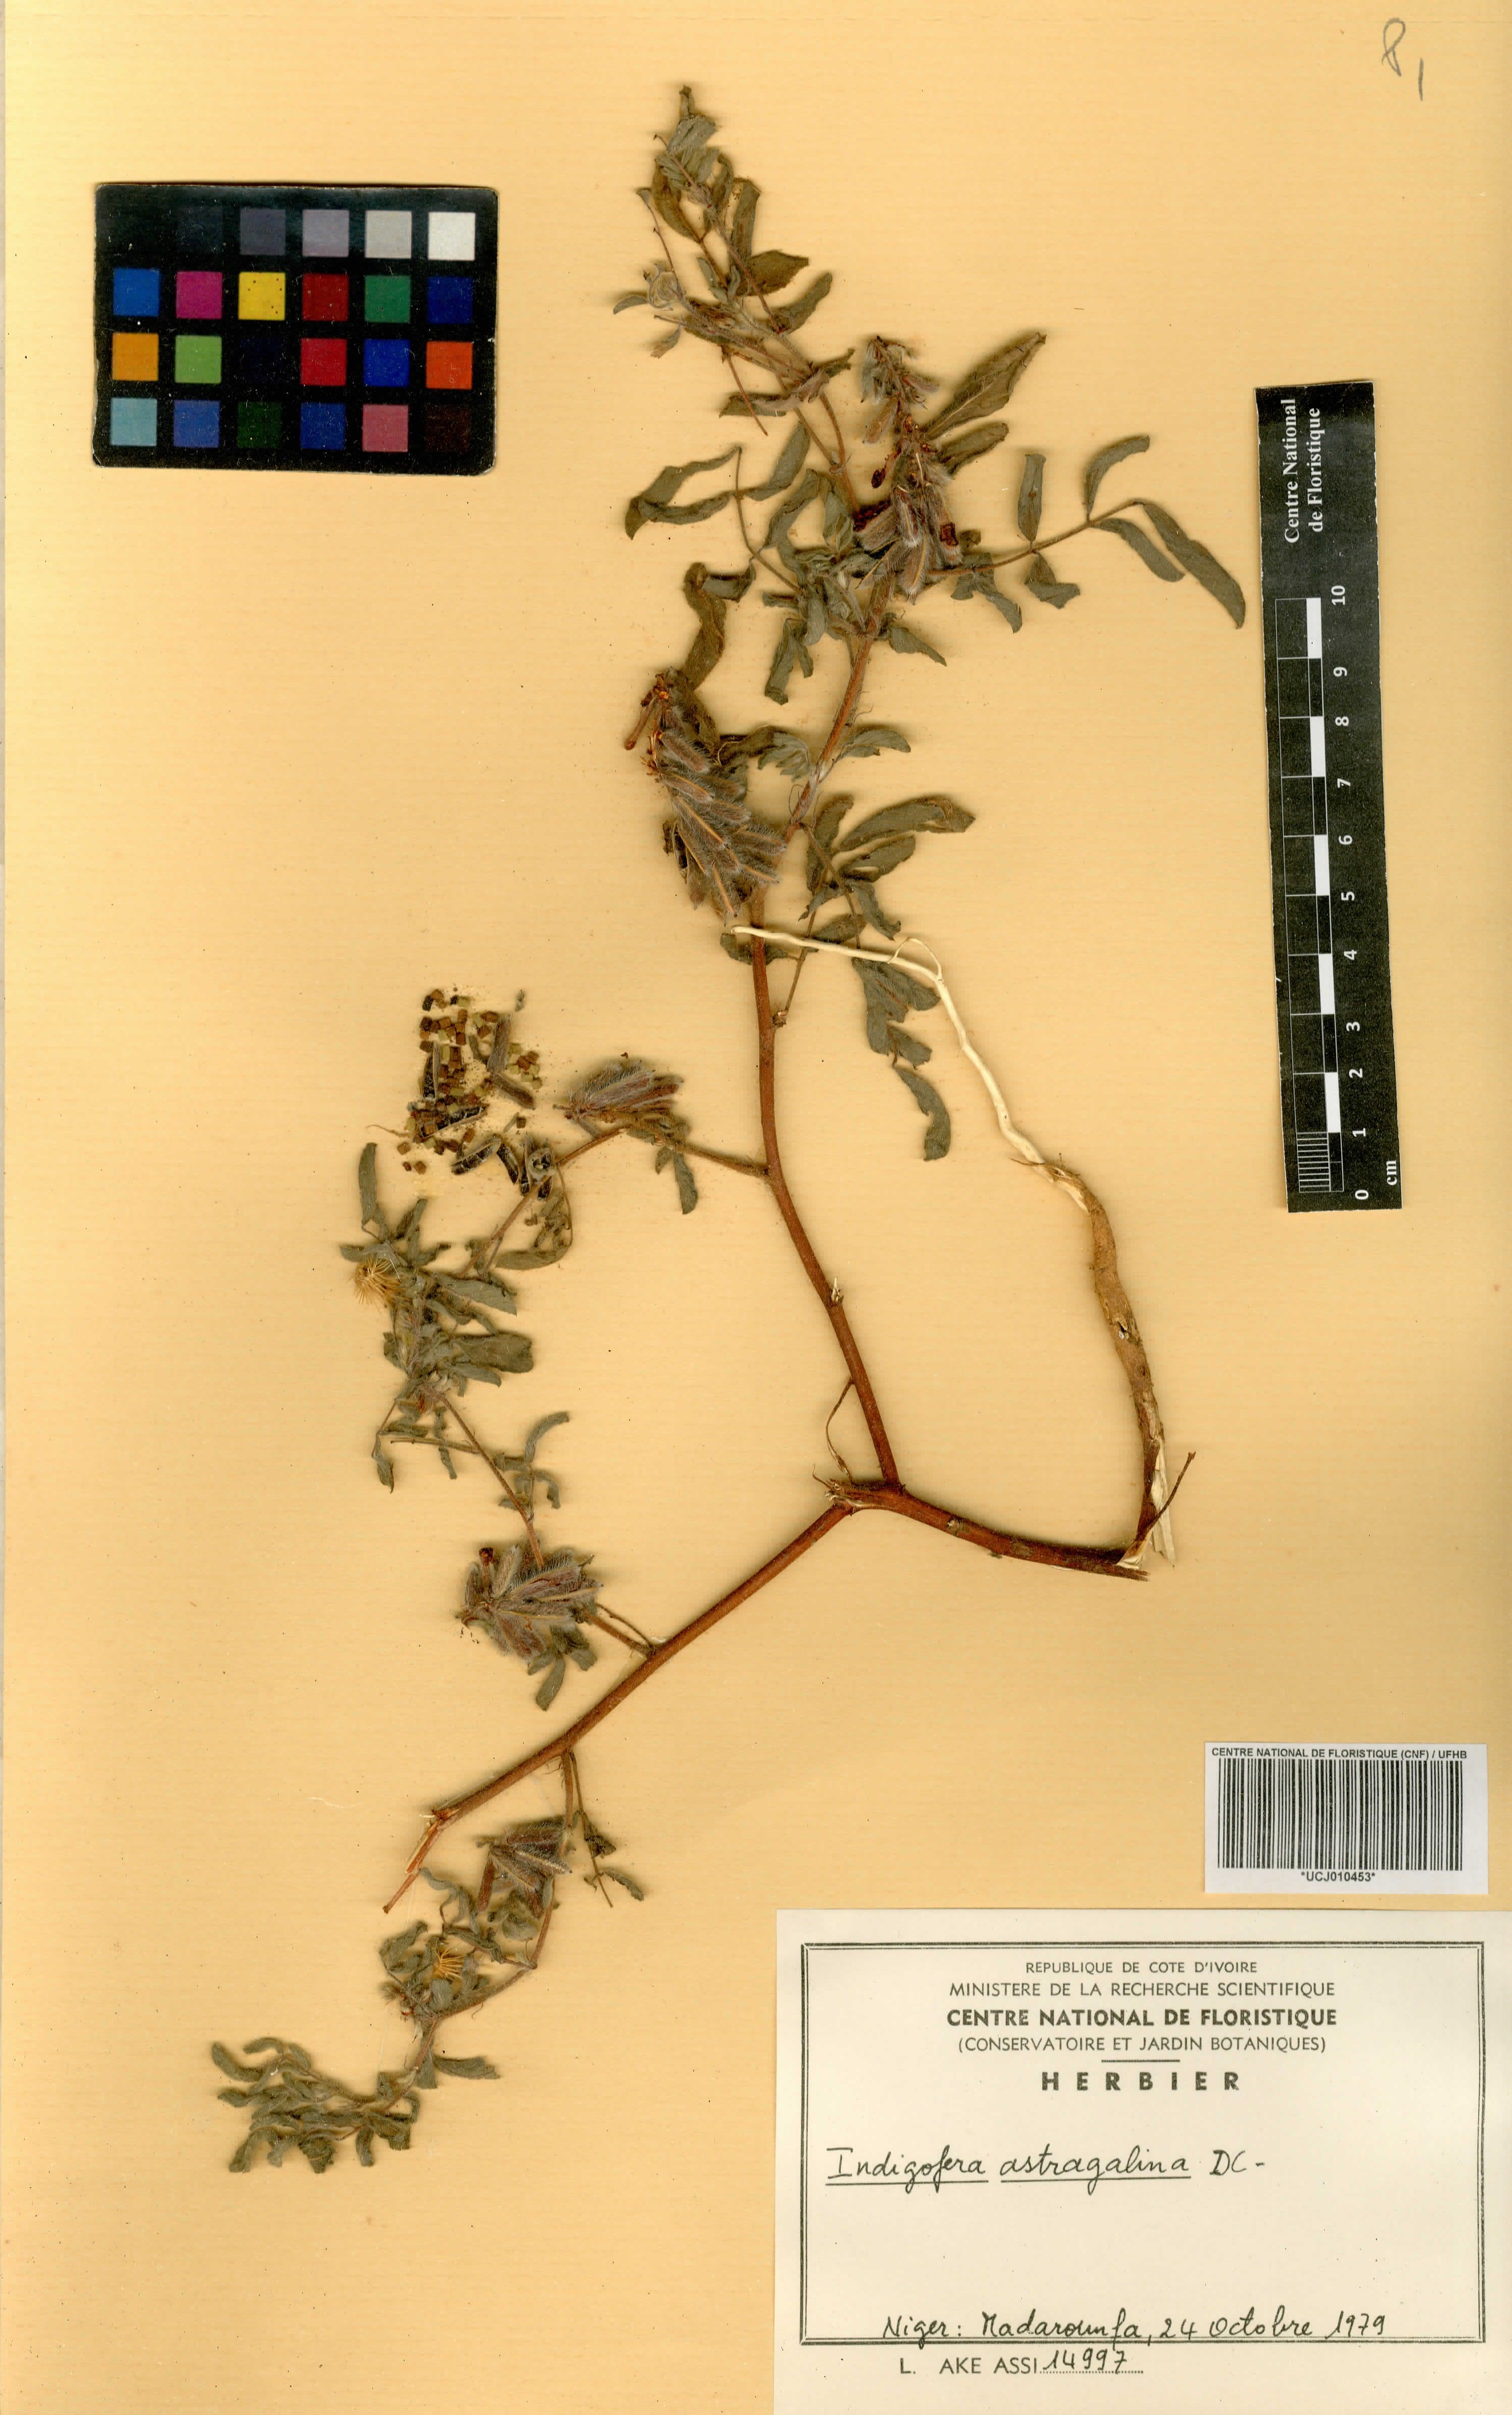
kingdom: Plantae
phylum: Tracheophyta
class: Magnoliopsida
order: Fabales
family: Fabaceae
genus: Indigofera
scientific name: Indigofera astragalina
